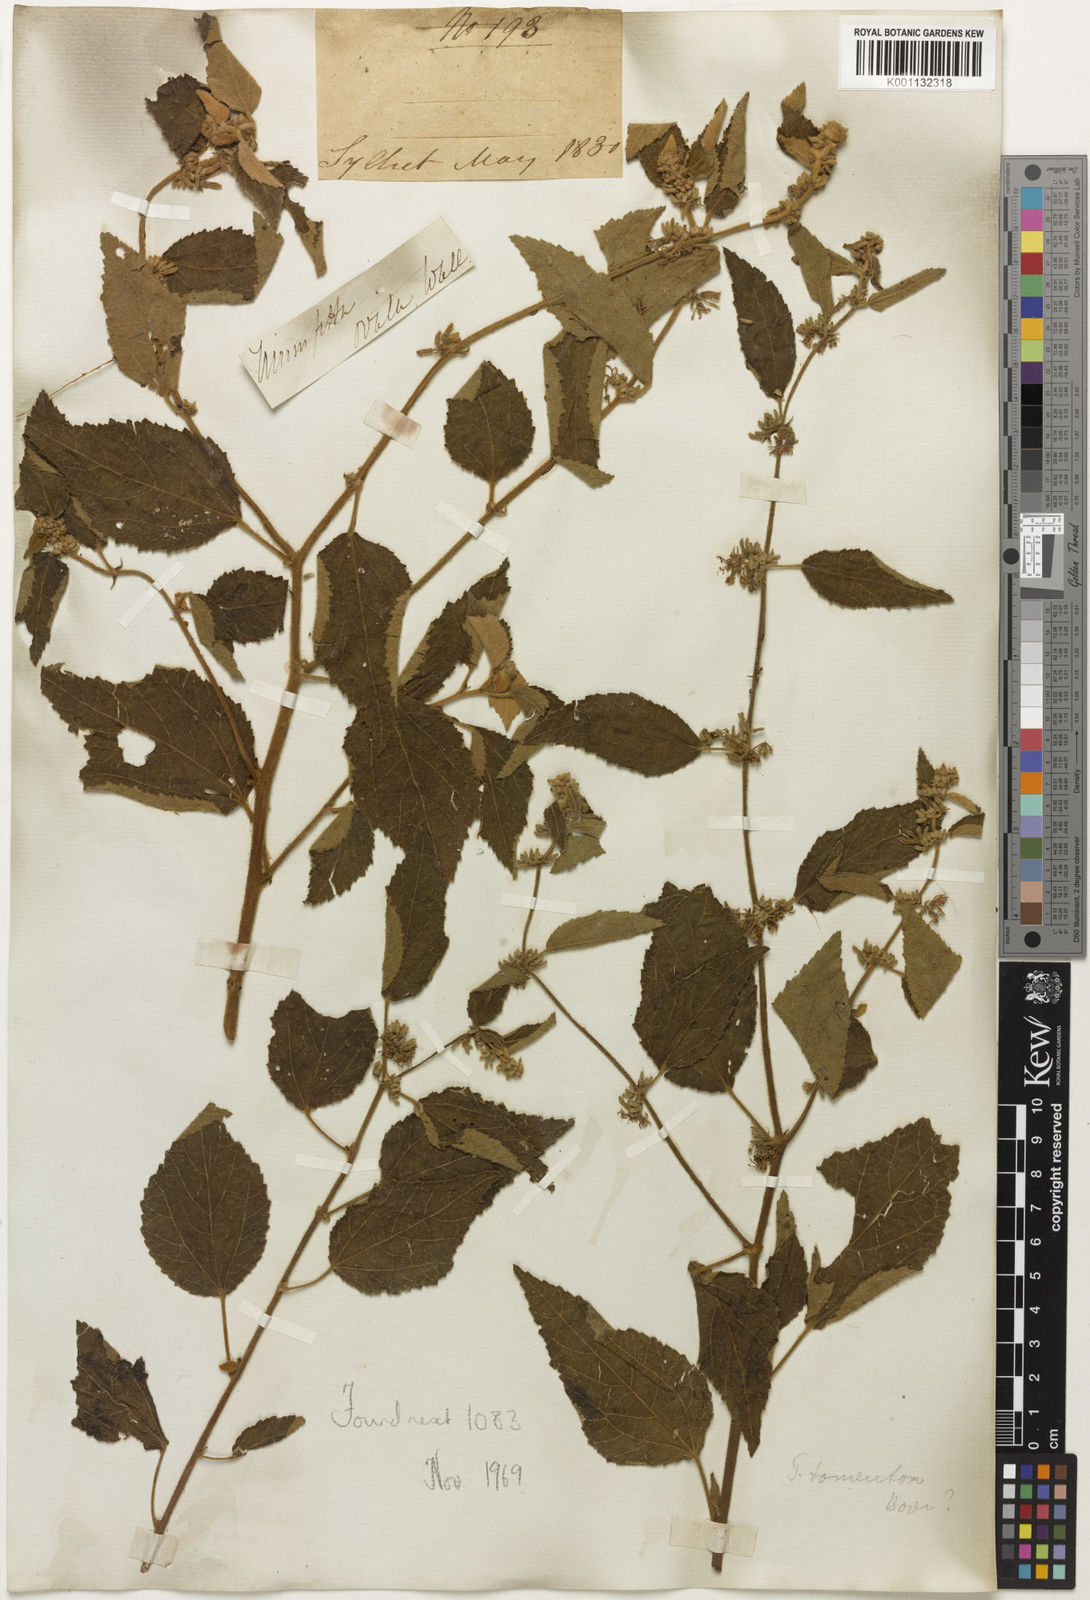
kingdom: Plantae
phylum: Tracheophyta
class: Magnoliopsida
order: Malvales
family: Malvaceae
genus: Triumfetta
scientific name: Triumfetta
